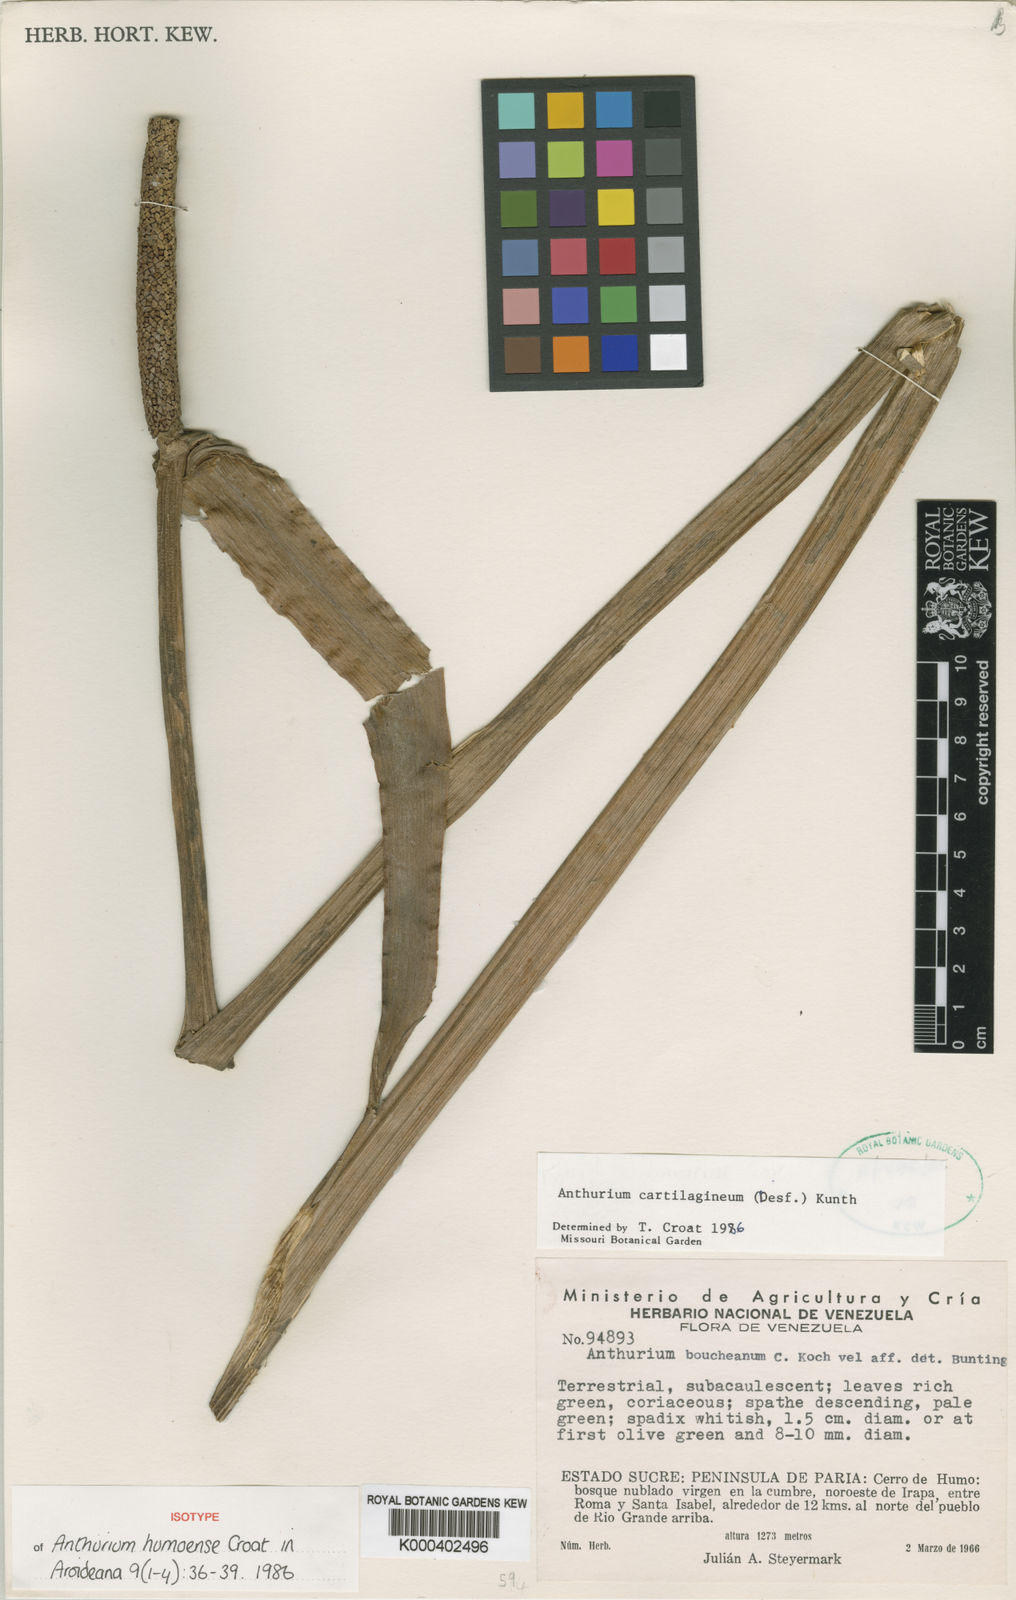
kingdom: Plantae
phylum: Tracheophyta
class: Liliopsida
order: Alismatales
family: Araceae
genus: Anthurium
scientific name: Anthurium cartilagineum
